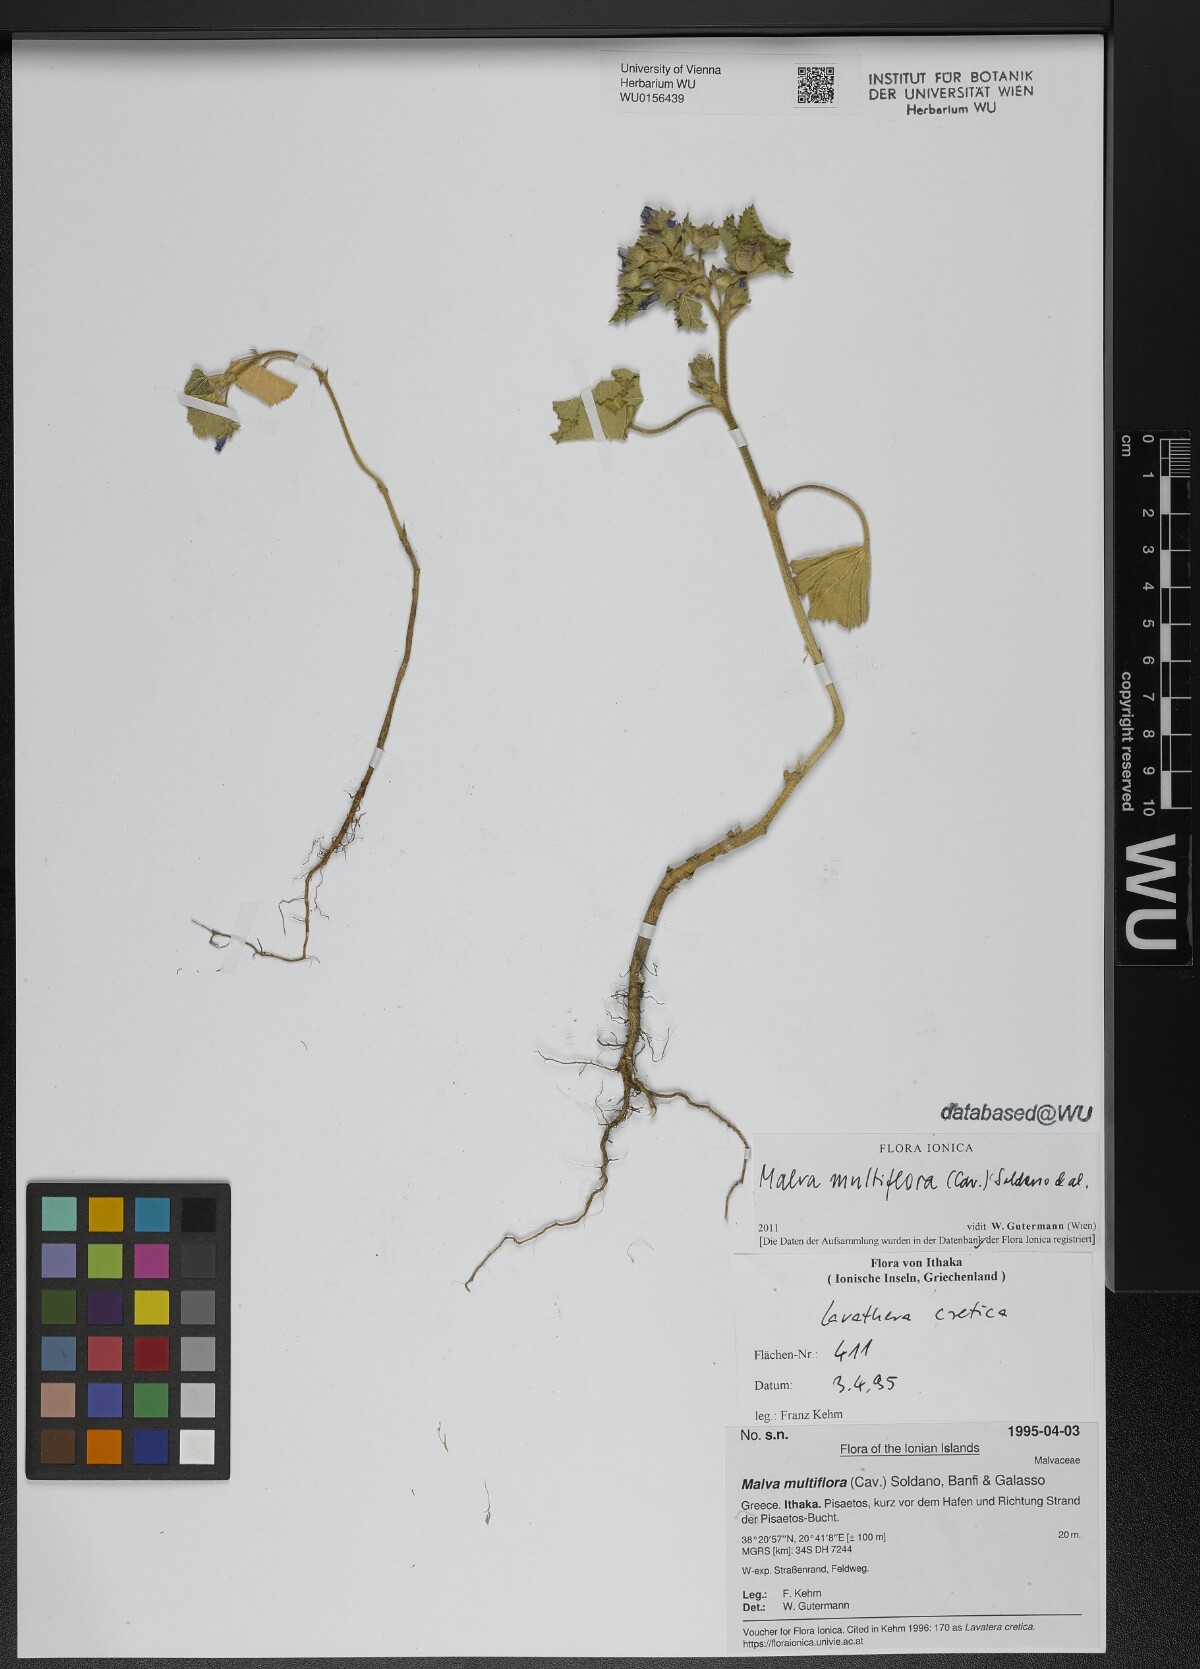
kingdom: Plantae
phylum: Tracheophyta
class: Magnoliopsida
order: Malvales
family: Malvaceae
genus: Malva
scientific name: Malva multiflora
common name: Cheeseweed
